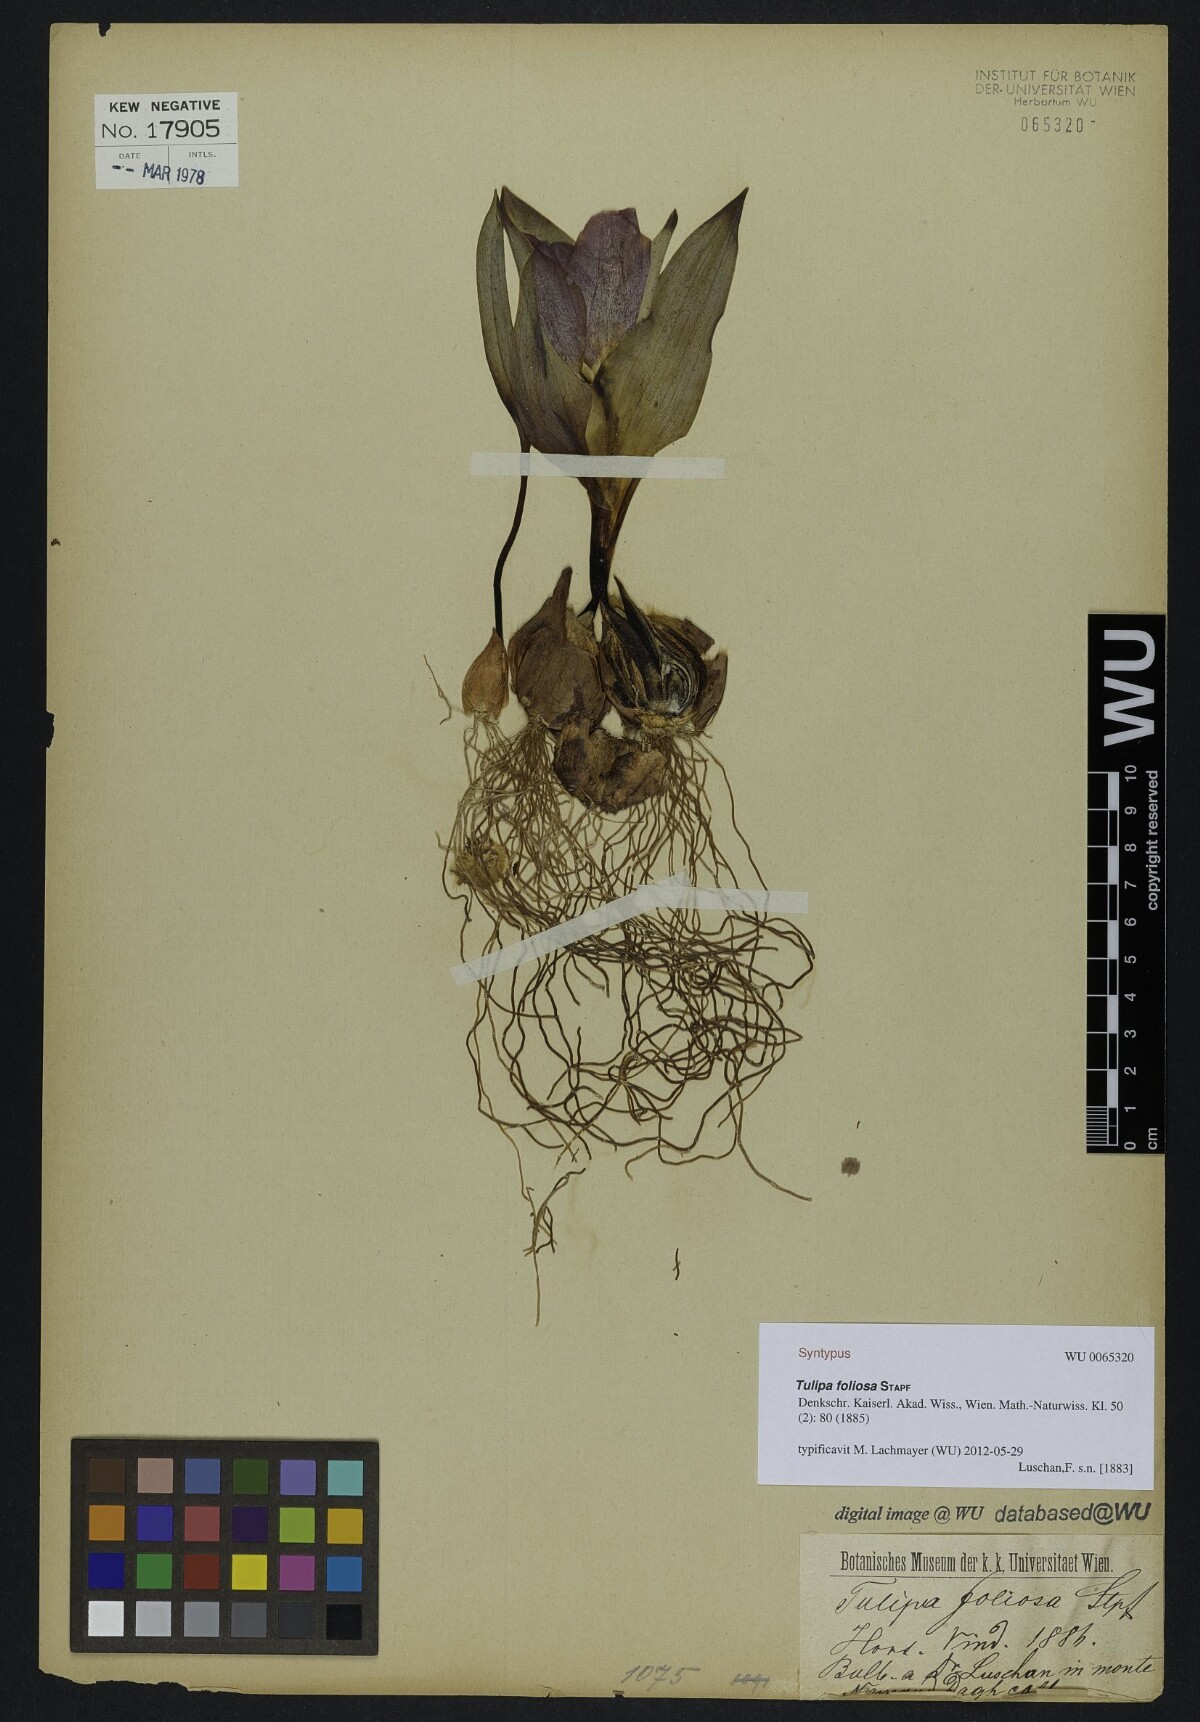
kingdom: Plantae
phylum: Tracheophyta
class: Liliopsida
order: Liliales
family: Liliaceae
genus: Tulipa
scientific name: Tulipa foliosa
